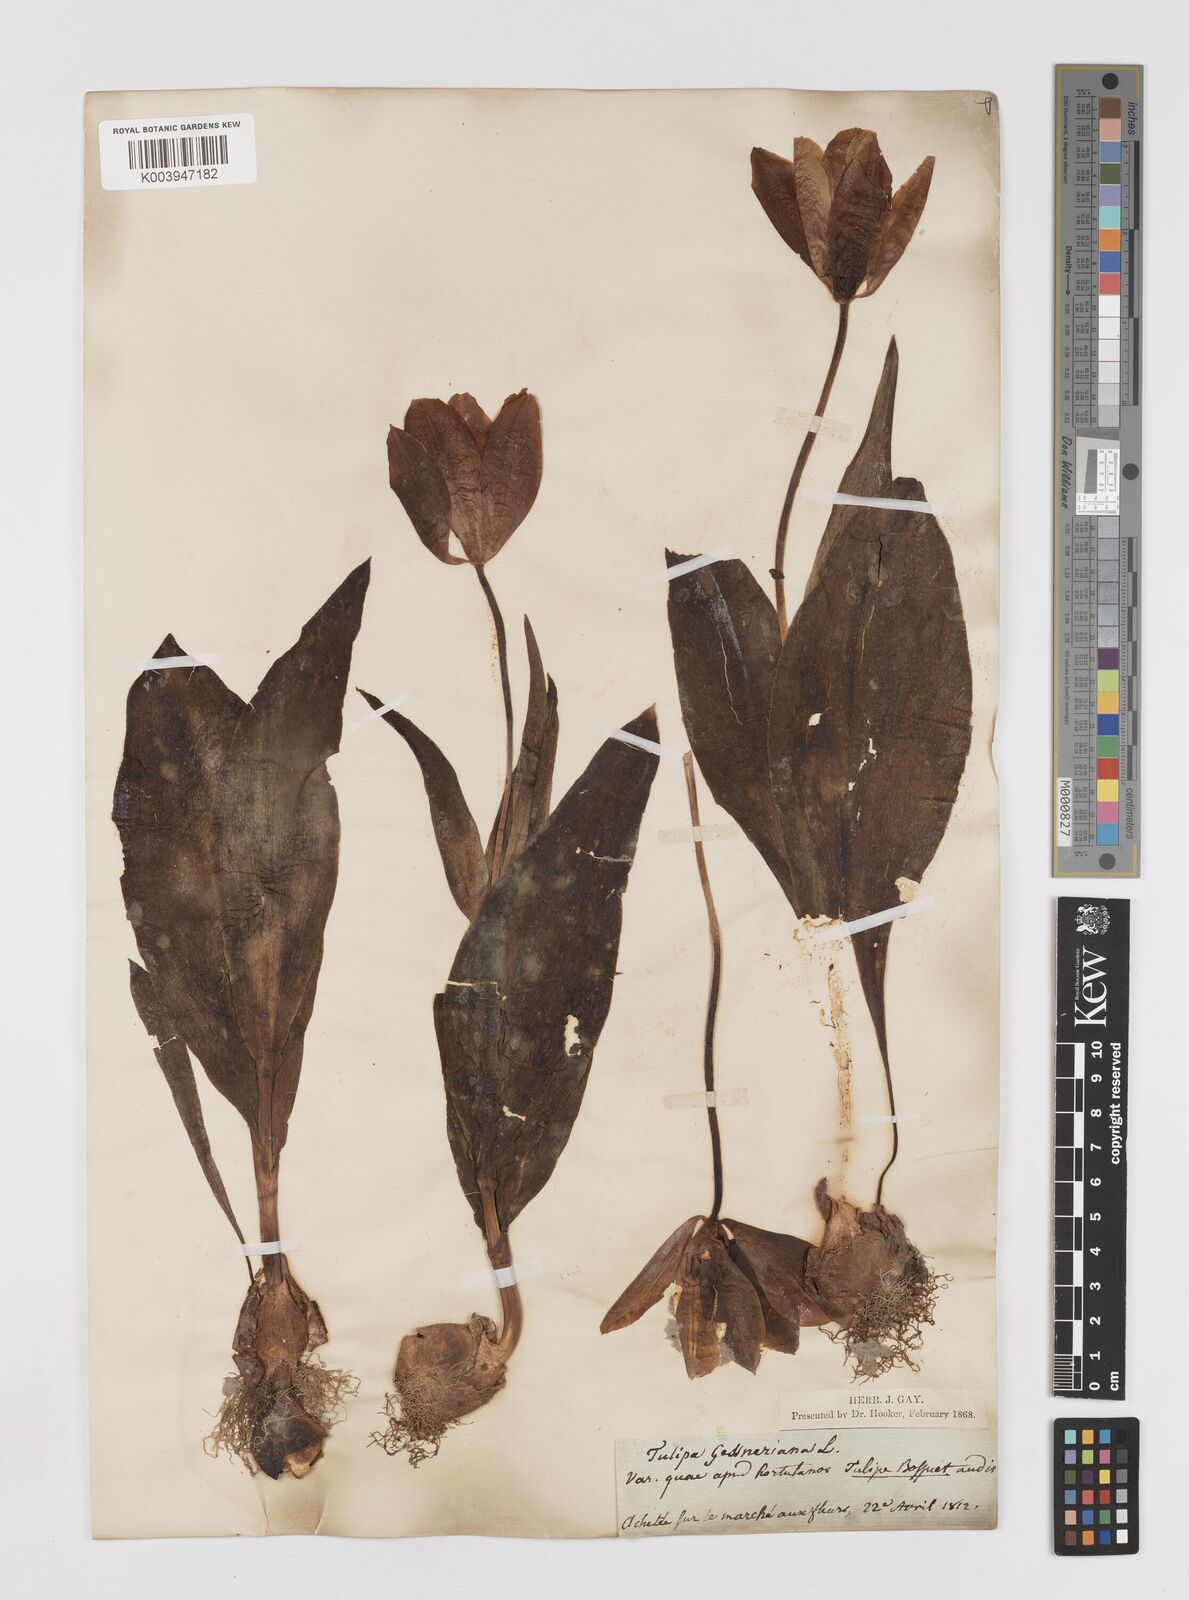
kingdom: Plantae
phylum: Tracheophyta
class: Liliopsida
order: Liliales
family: Liliaceae
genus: Tulipa
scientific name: Tulipa gesneriana
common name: Garden tulip
